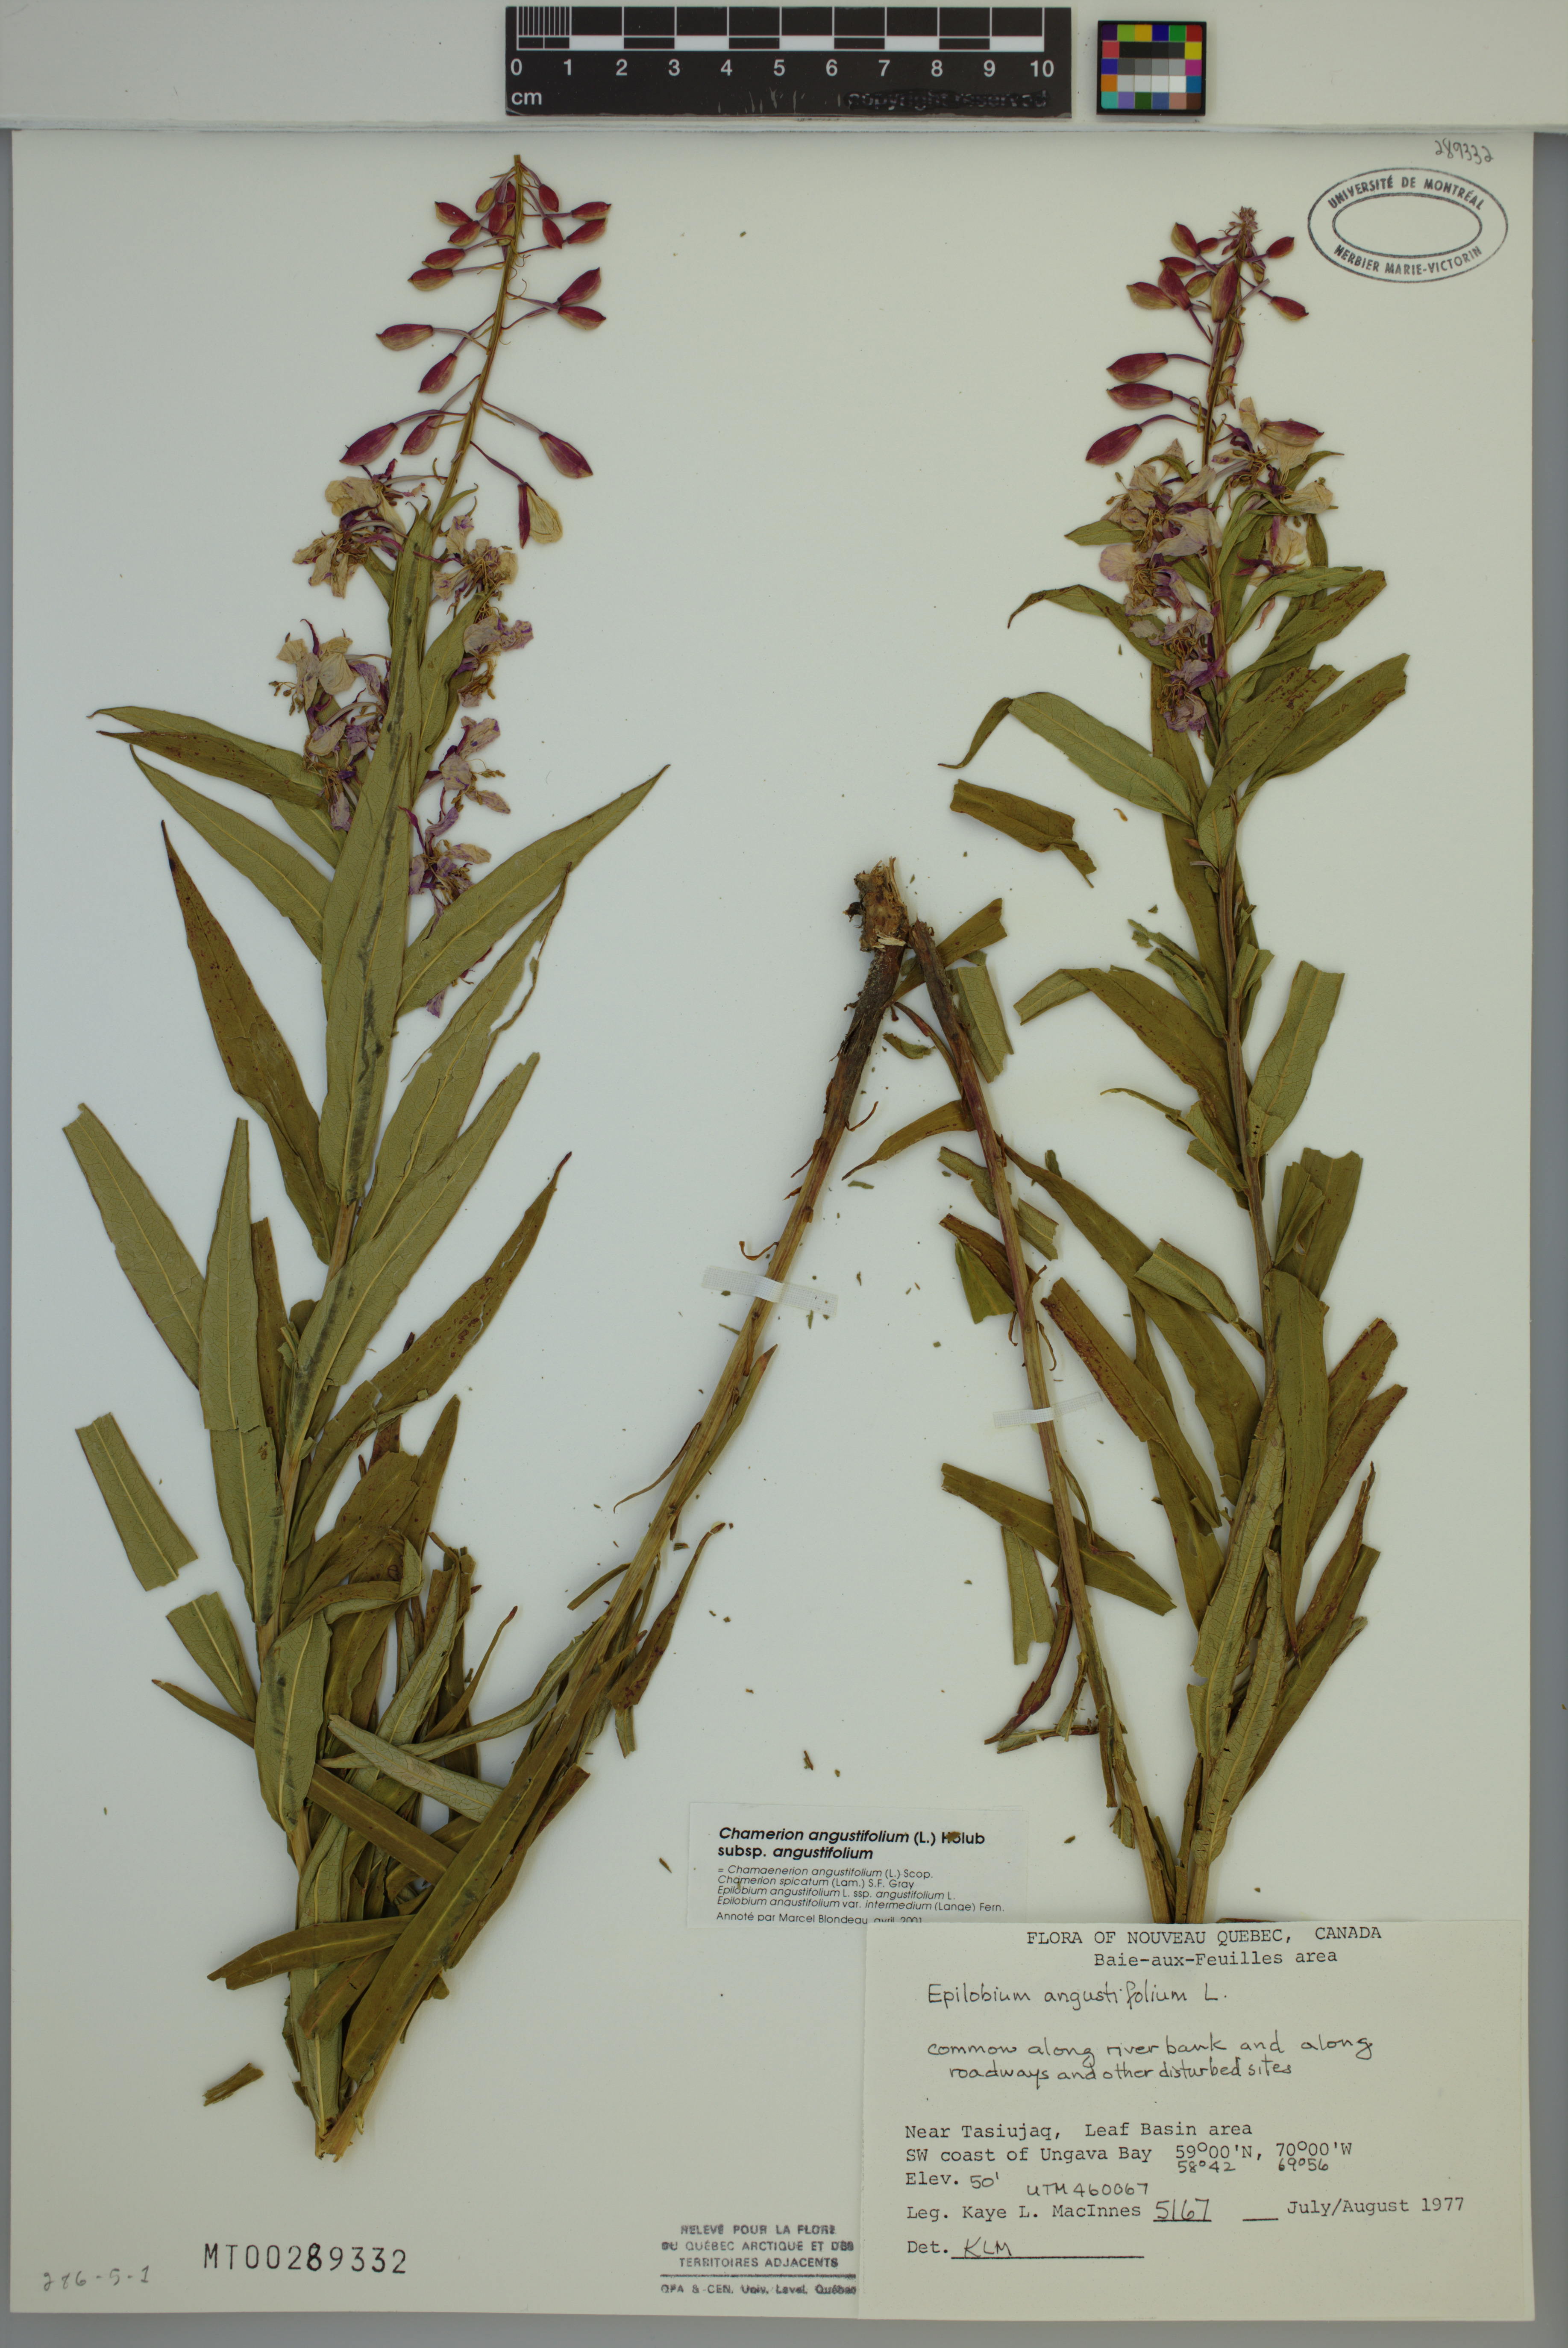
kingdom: Plantae
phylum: Tracheophyta
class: Magnoliopsida
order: Myrtales
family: Onagraceae
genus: Chamaenerion
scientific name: Chamaenerion angustifolium
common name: Fireweed
